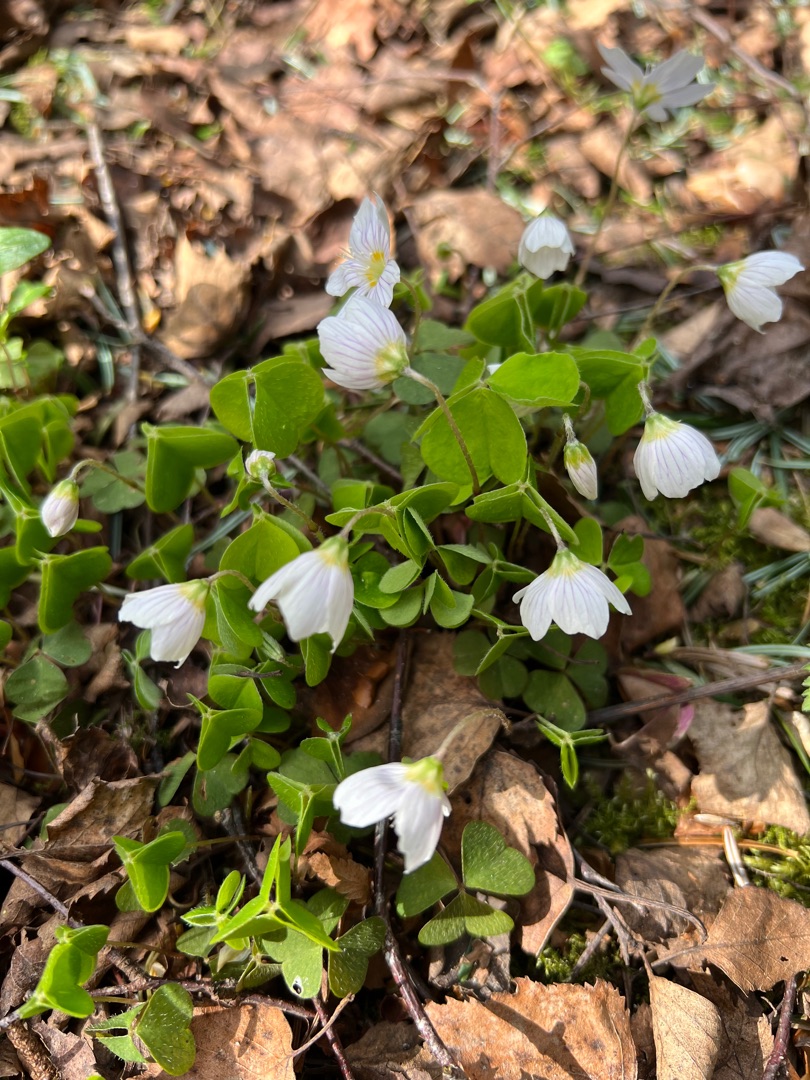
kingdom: Plantae
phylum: Tracheophyta
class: Magnoliopsida
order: Oxalidales
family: Oxalidaceae
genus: Oxalis
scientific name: Oxalis acetosella
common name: Skovsyre
